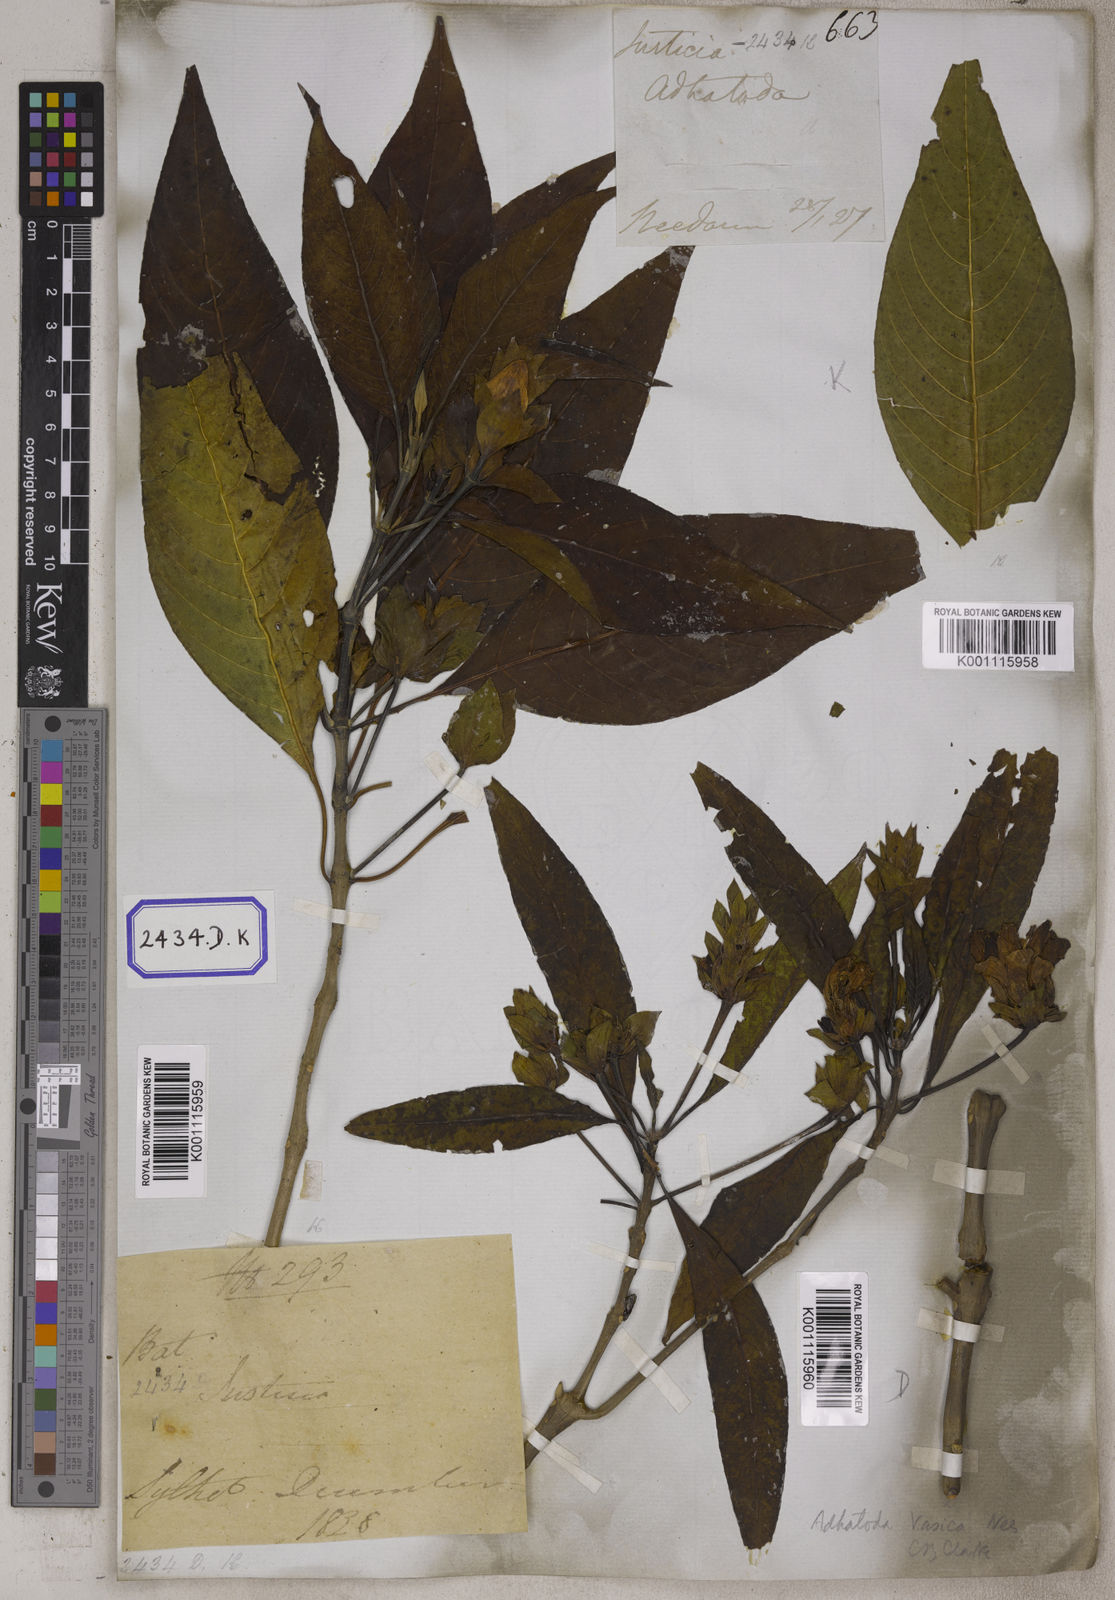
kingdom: Plantae
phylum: Tracheophyta
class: Magnoliopsida
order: Lamiales
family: Acanthaceae
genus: Justicia
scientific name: Justicia adhatoda
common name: Malabar nut
